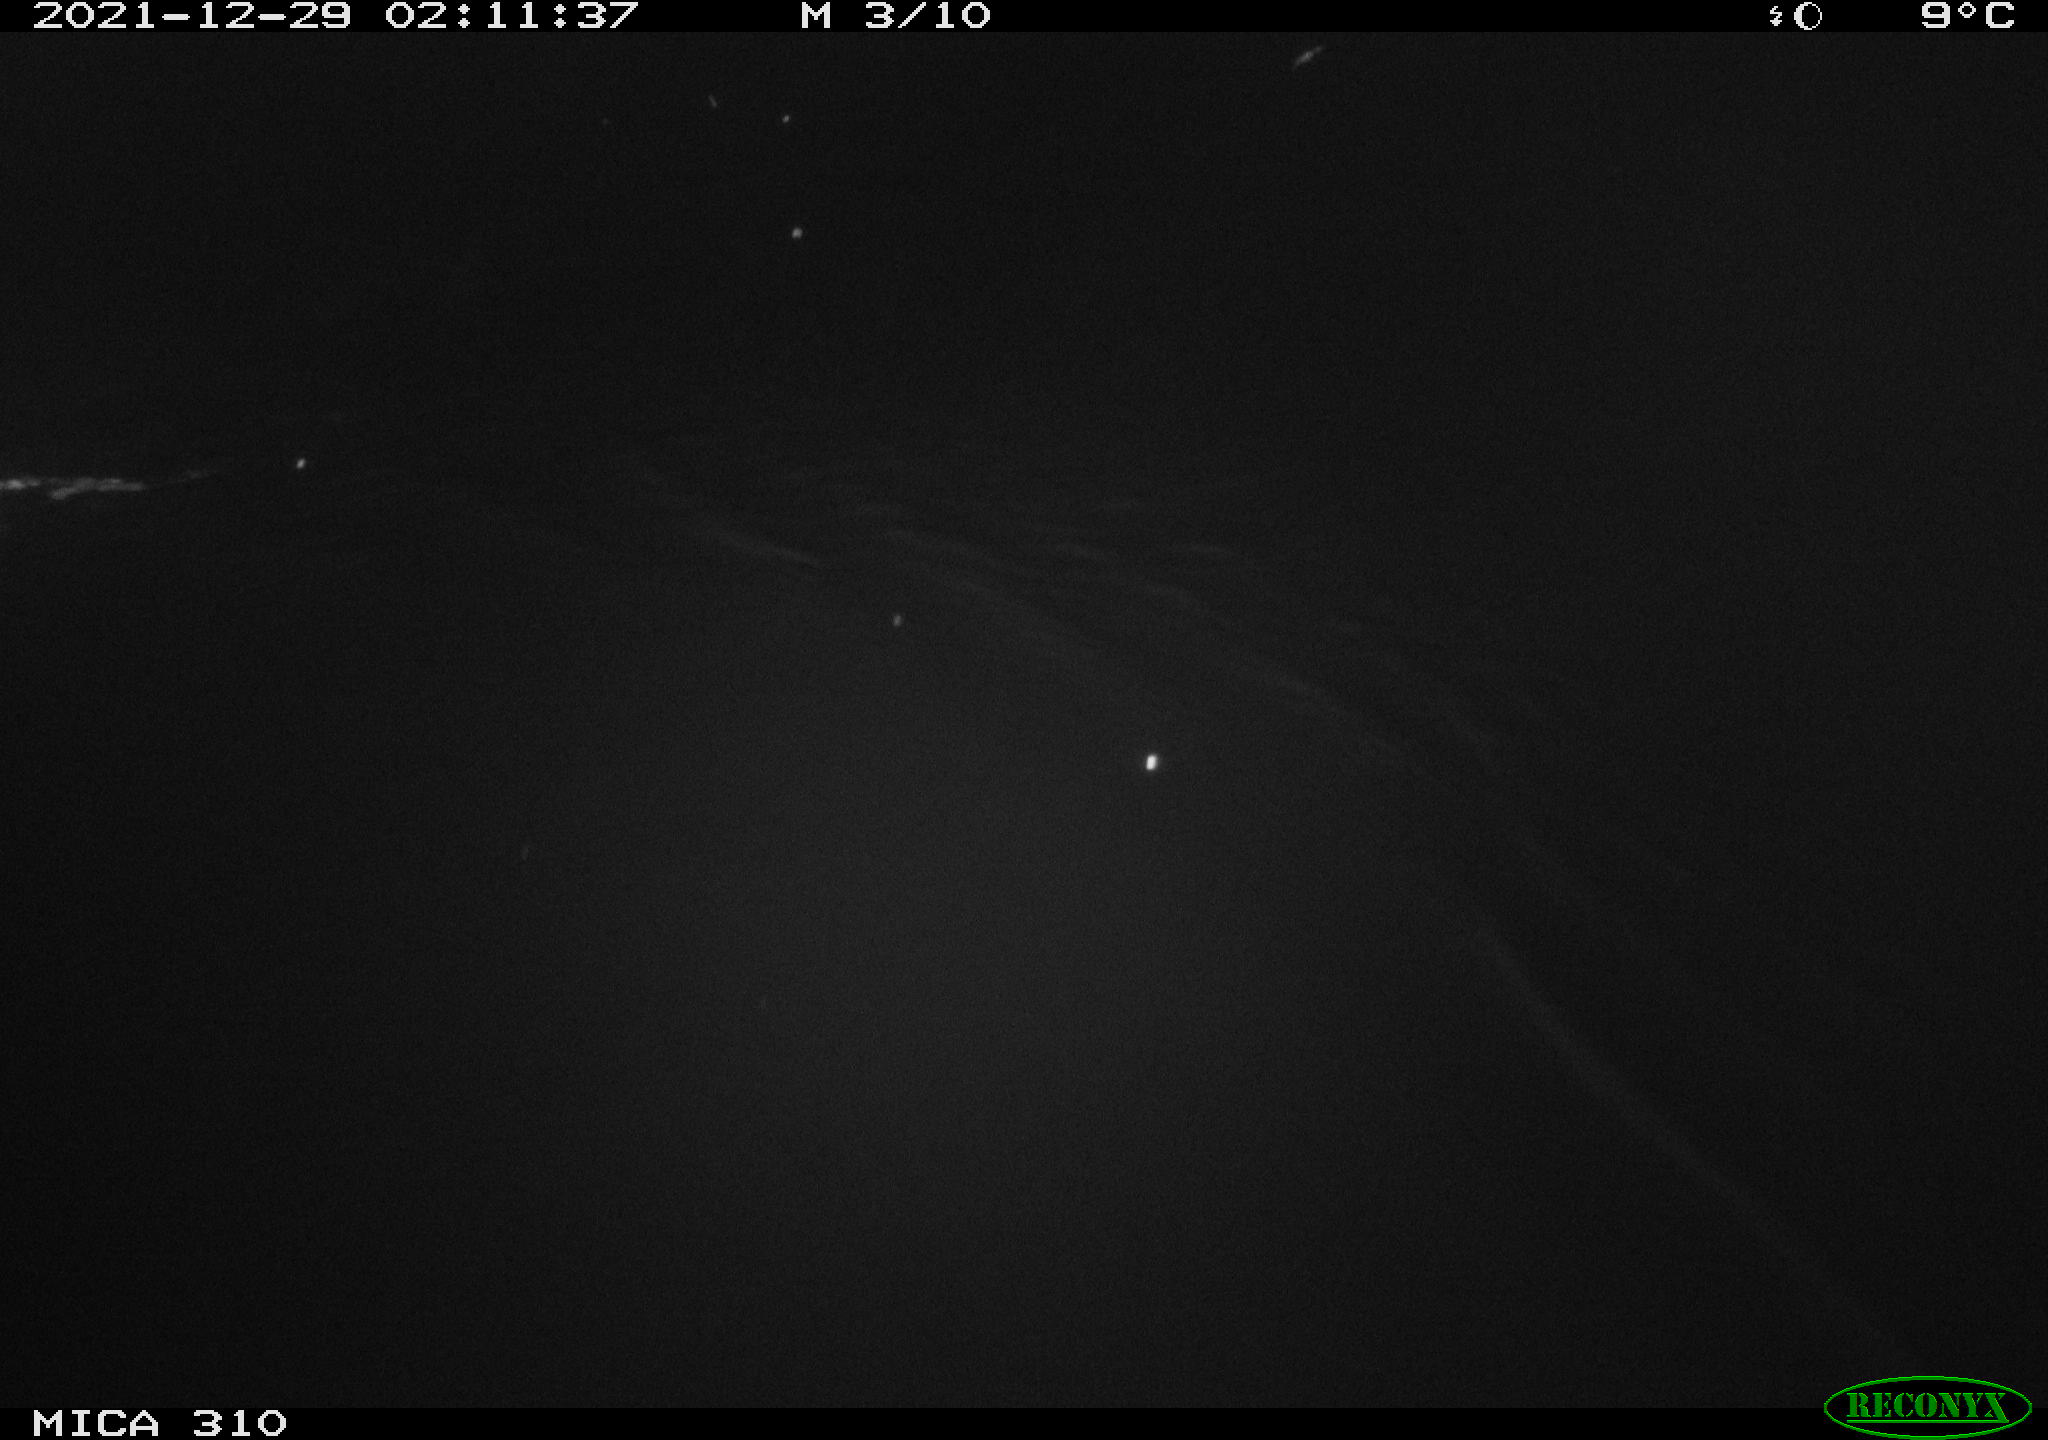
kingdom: Animalia
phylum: Chordata
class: Mammalia
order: Rodentia
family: Muridae
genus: Rattus
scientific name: Rattus norvegicus
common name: Brown rat
